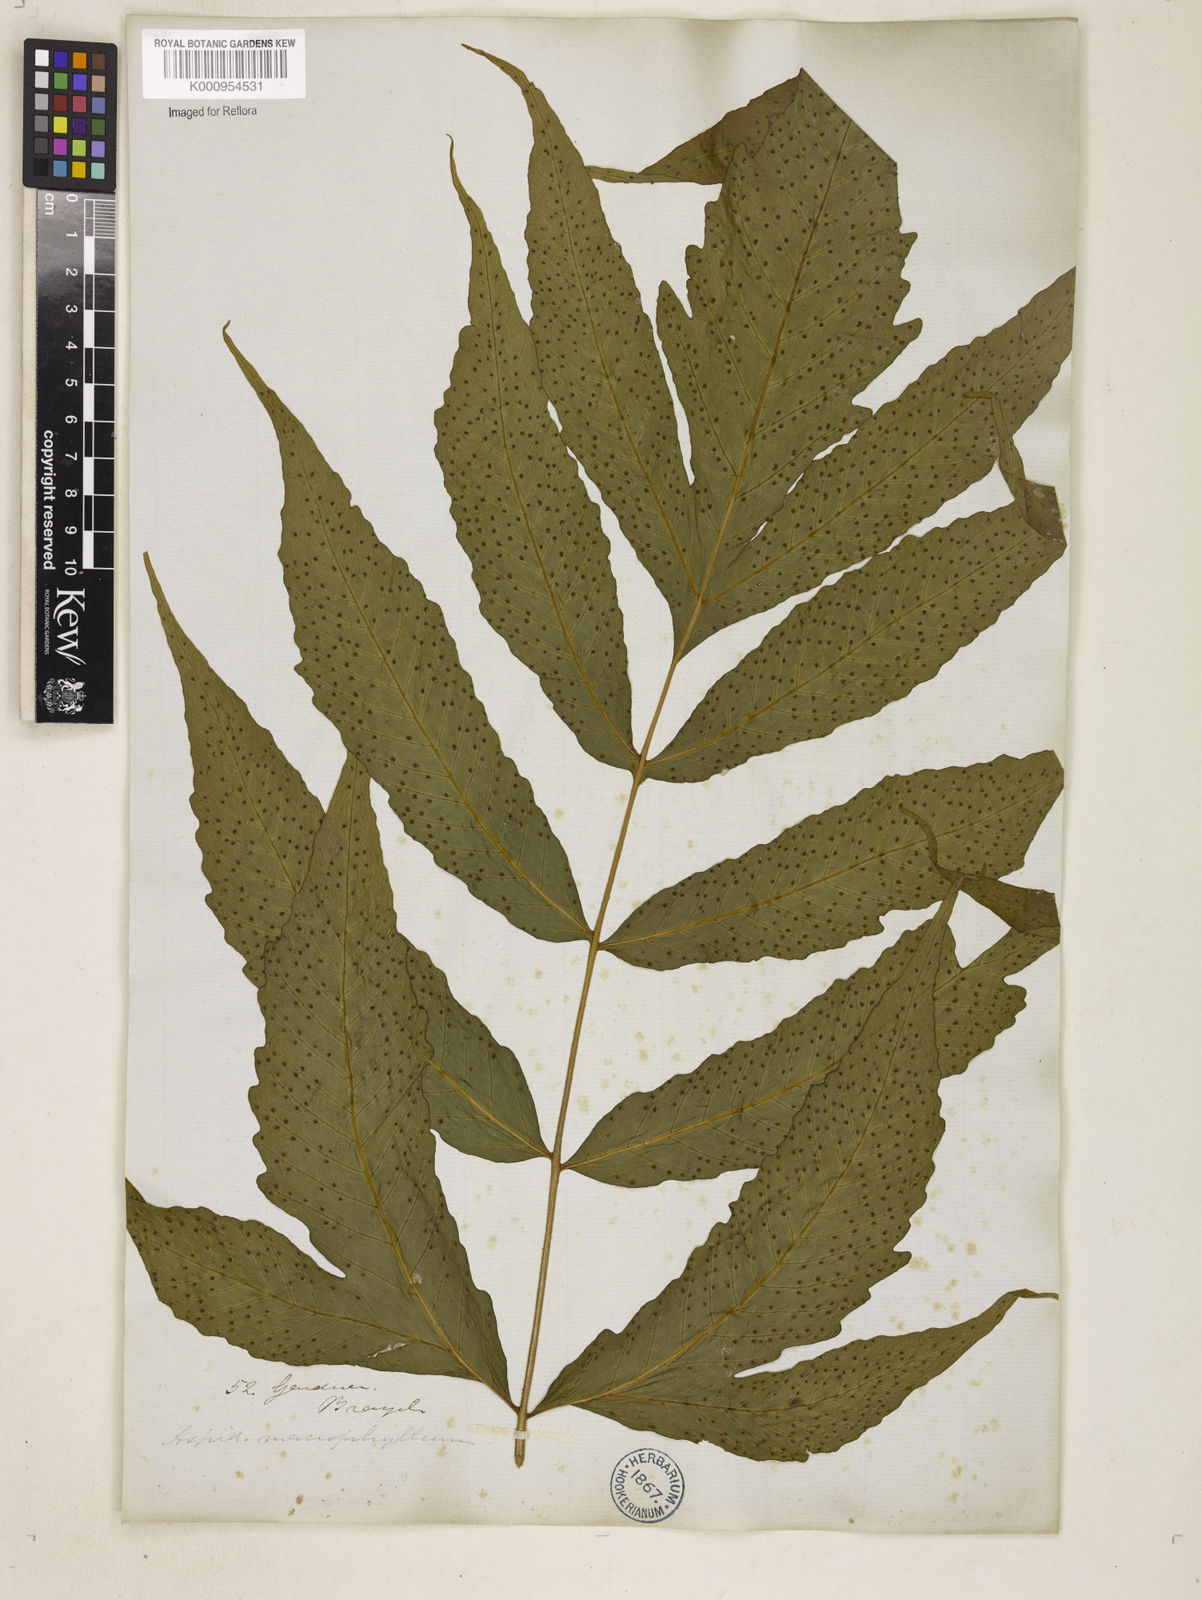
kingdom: Plantae
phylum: Tracheophyta
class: Polypodiopsida
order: Polypodiales
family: Tectariaceae
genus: Tectaria
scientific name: Tectaria incisa
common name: Incised halberd fern
